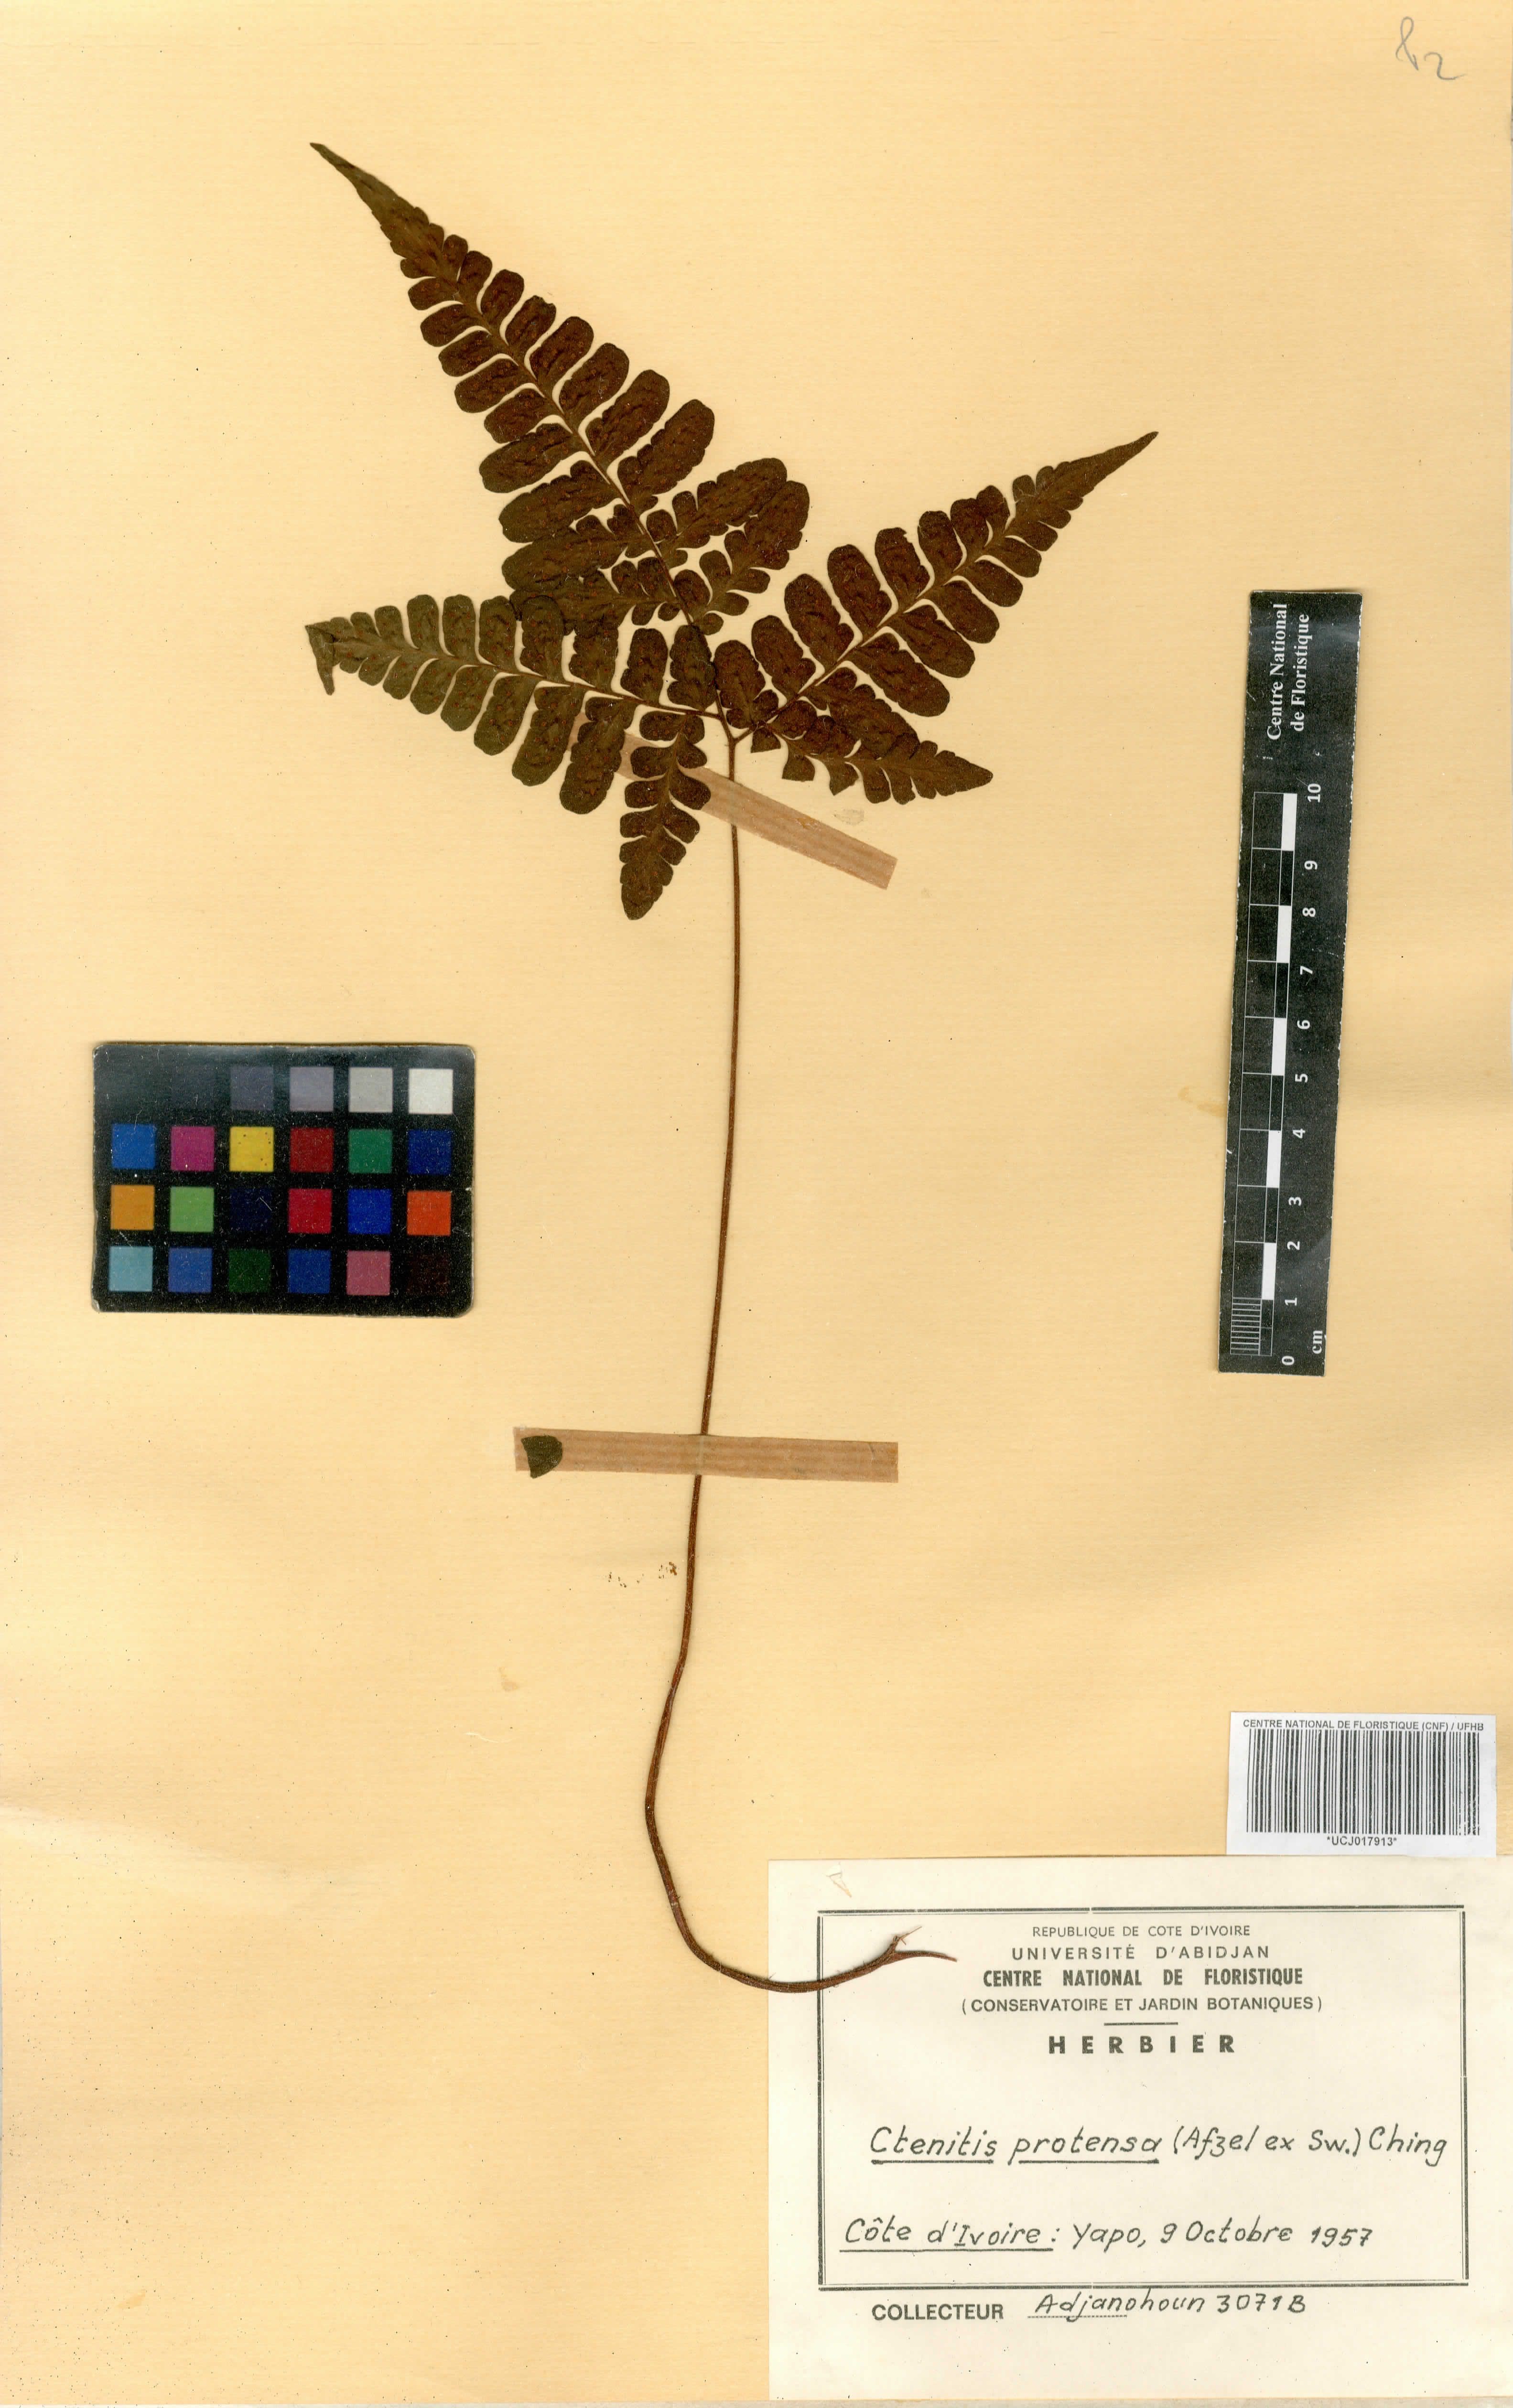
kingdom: Plantae
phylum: Tracheophyta
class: Polypodiopsida
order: Polypodiales
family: Tectariaceae
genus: Triplophyllum
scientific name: Triplophyllum protensum
